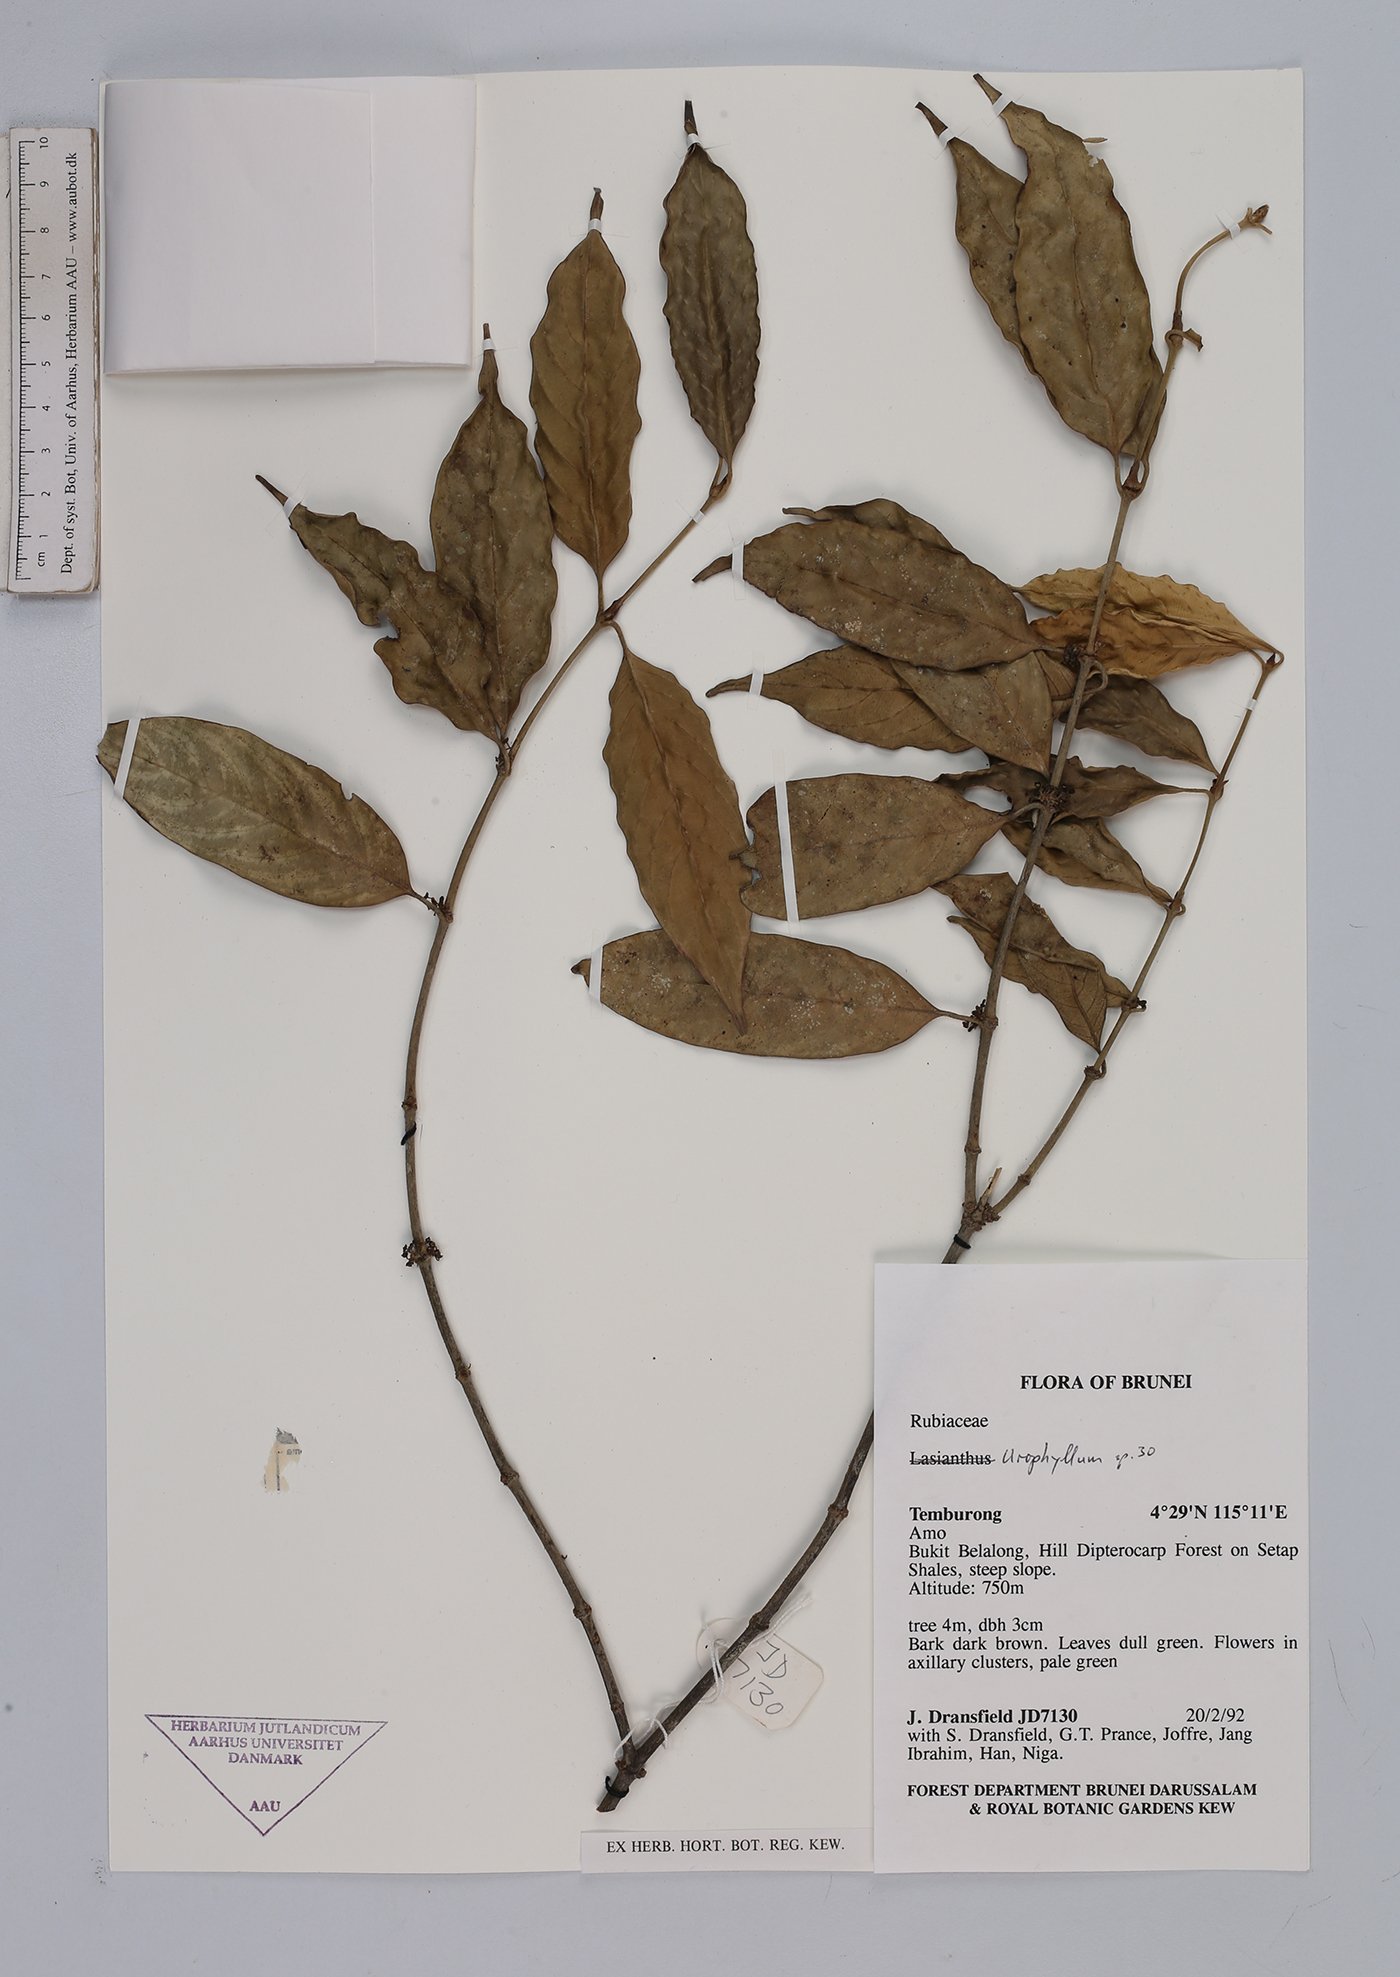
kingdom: Plantae
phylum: Tracheophyta
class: Magnoliopsida
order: Gentianales
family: Rubiaceae
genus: Urophyllum
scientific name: Urophyllum
